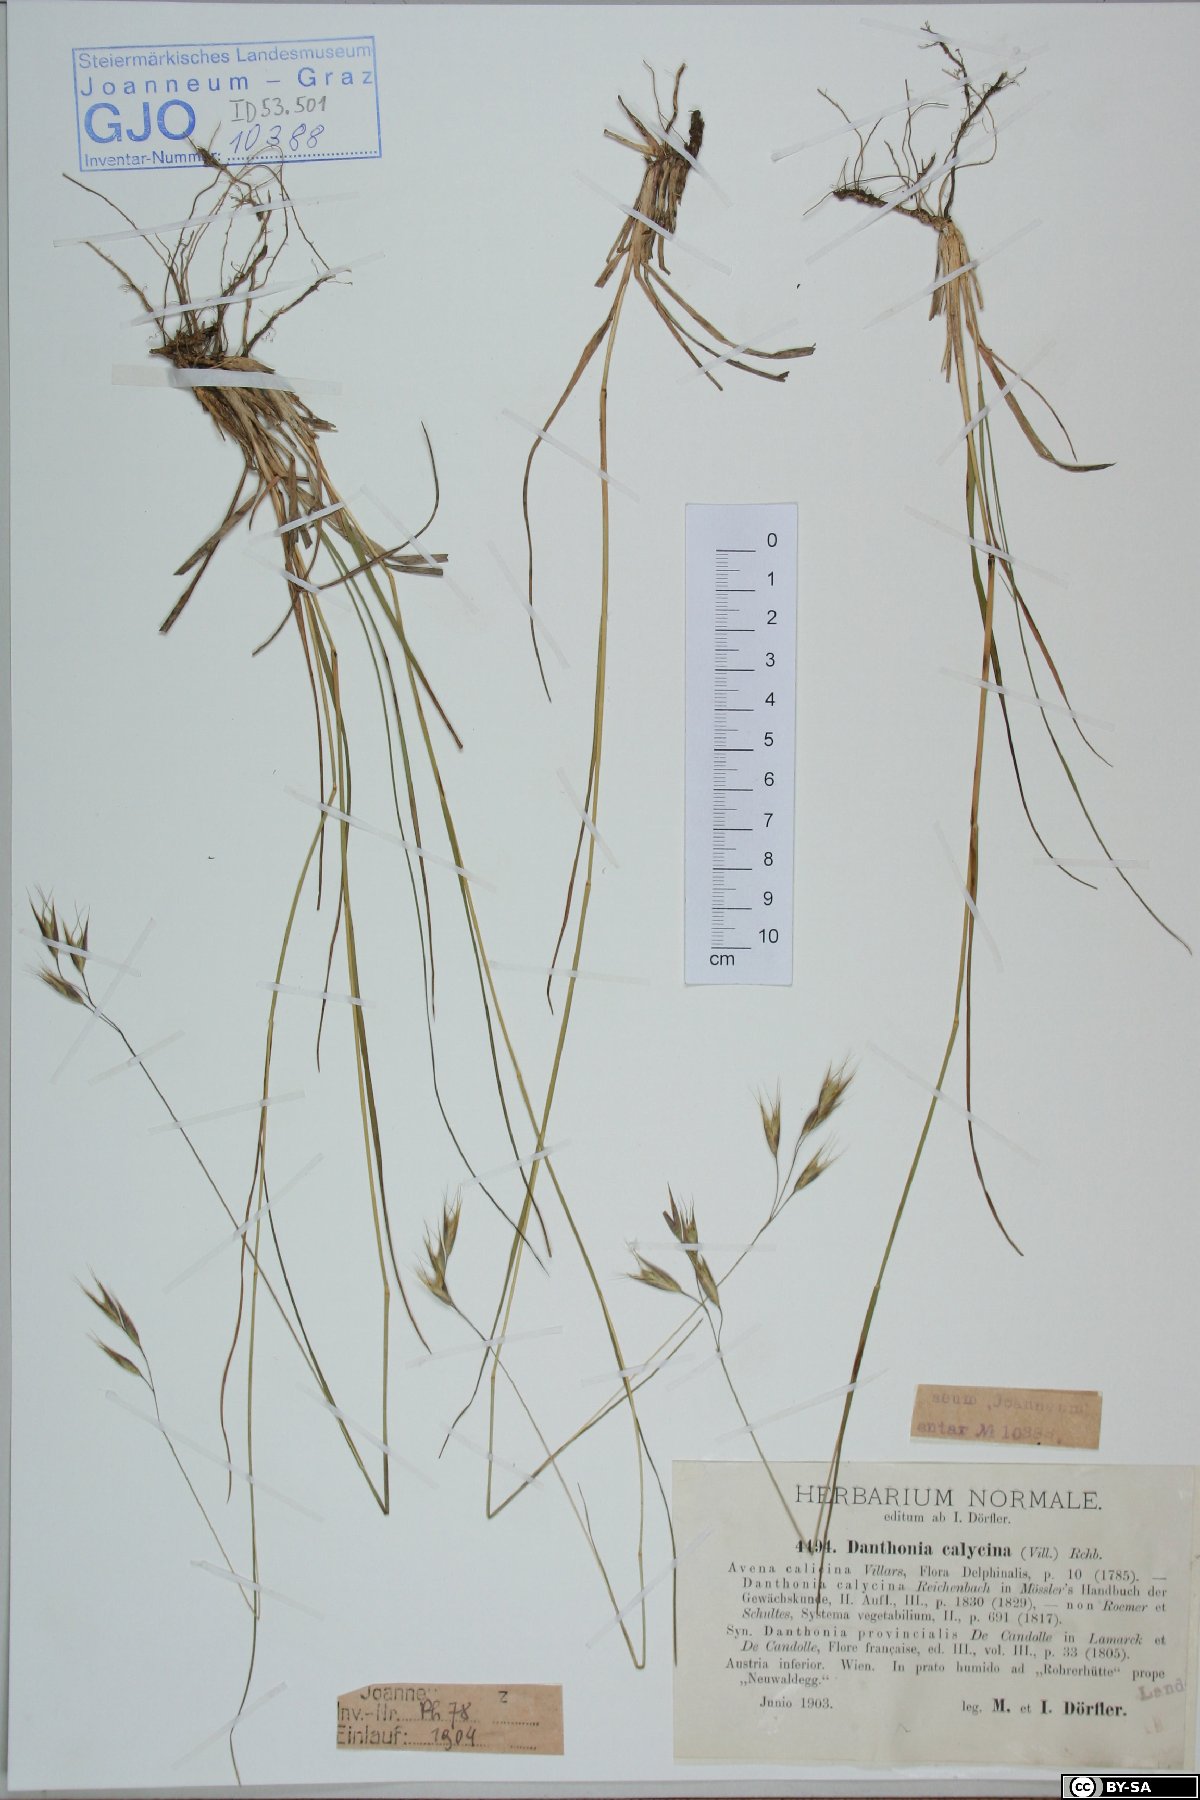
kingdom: Plantae
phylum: Tracheophyta
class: Liliopsida
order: Poales
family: Poaceae
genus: Danthonia
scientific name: Danthonia alpina
